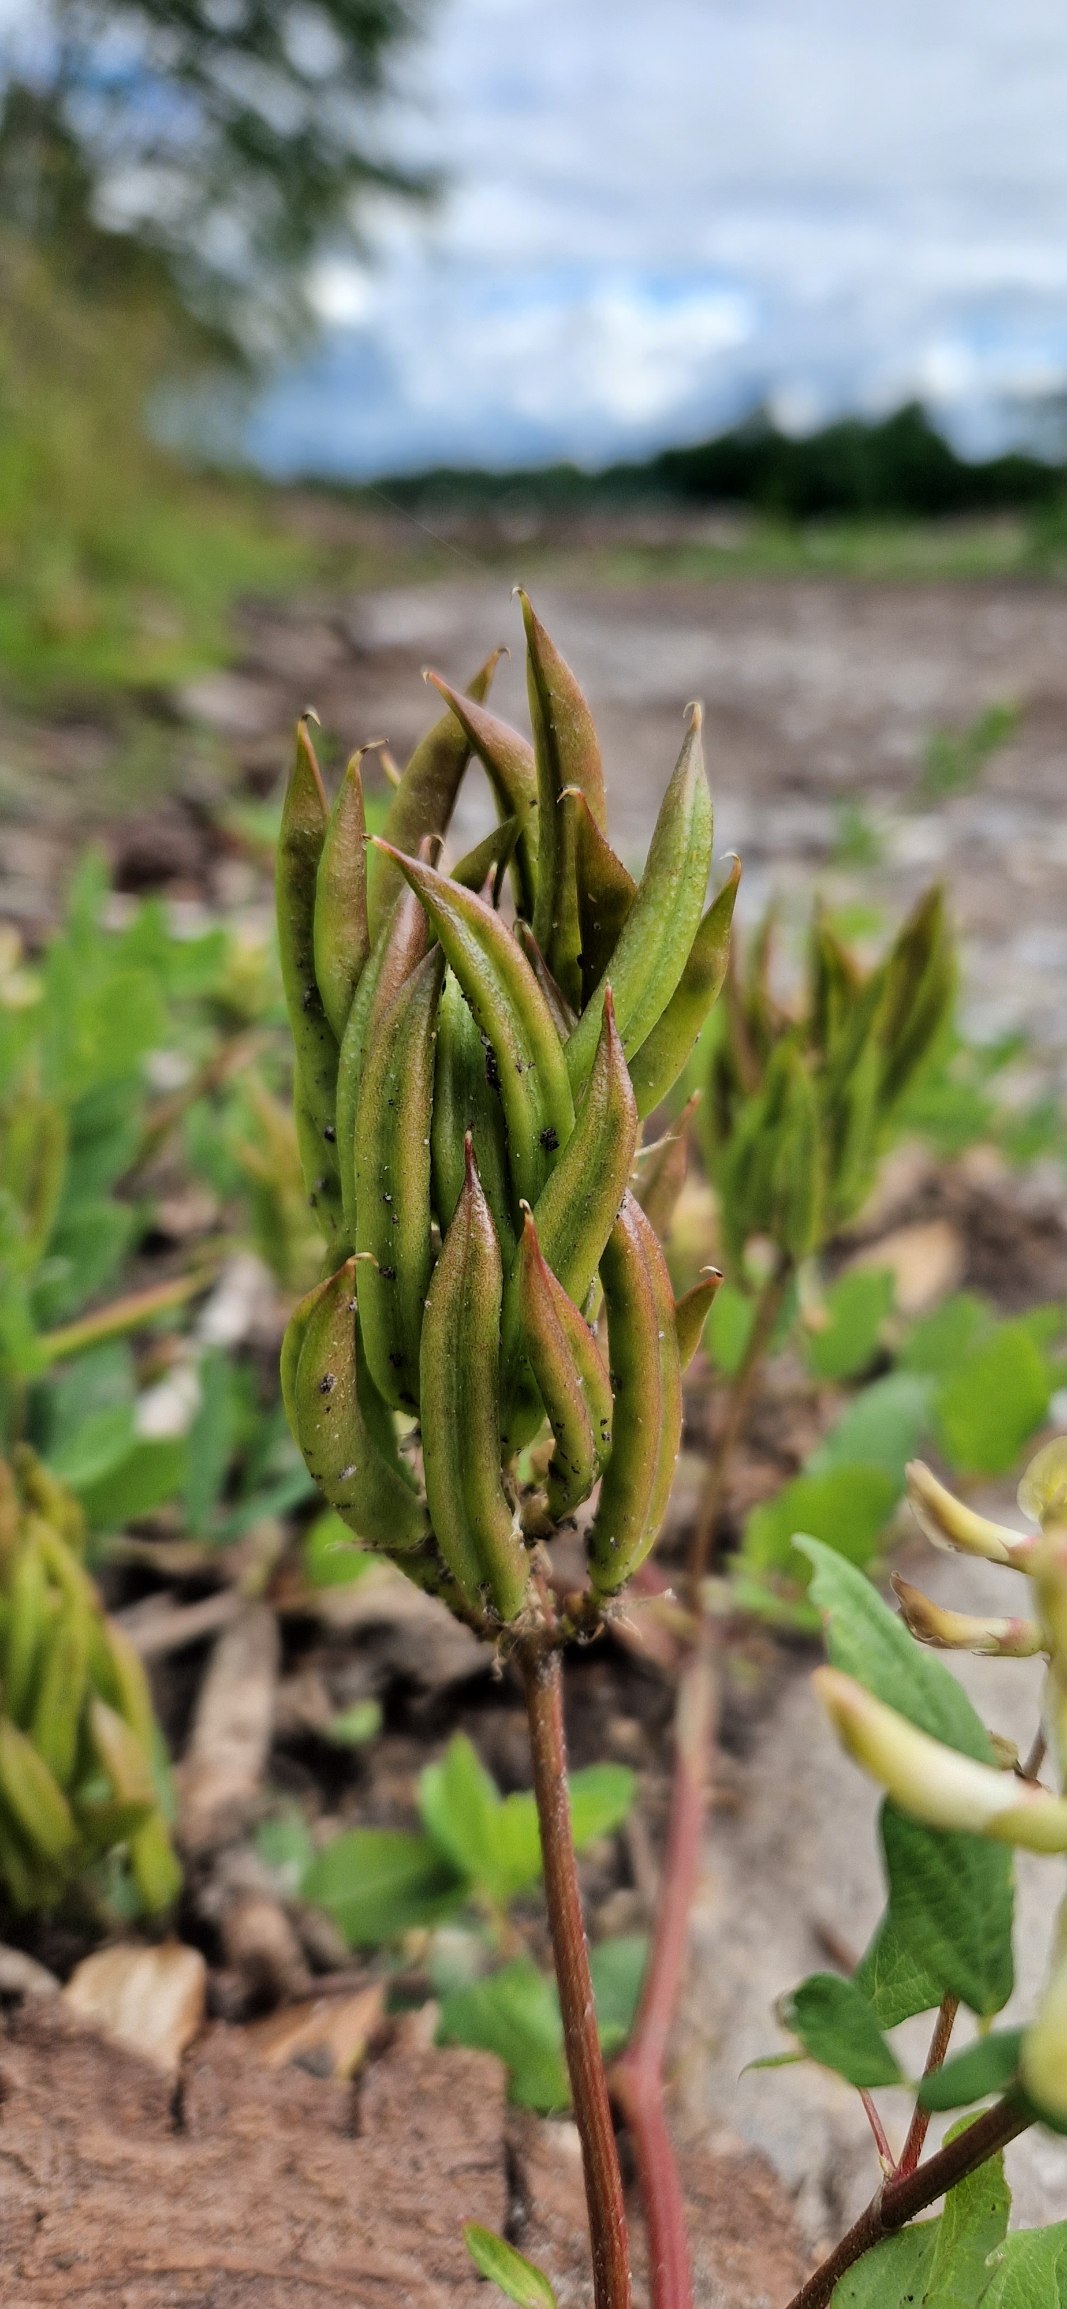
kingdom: Plantae
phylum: Tracheophyta
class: Magnoliopsida
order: Fabales
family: Fabaceae
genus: Astragalus
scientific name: Astragalus glycyphyllos
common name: Sød astragel
